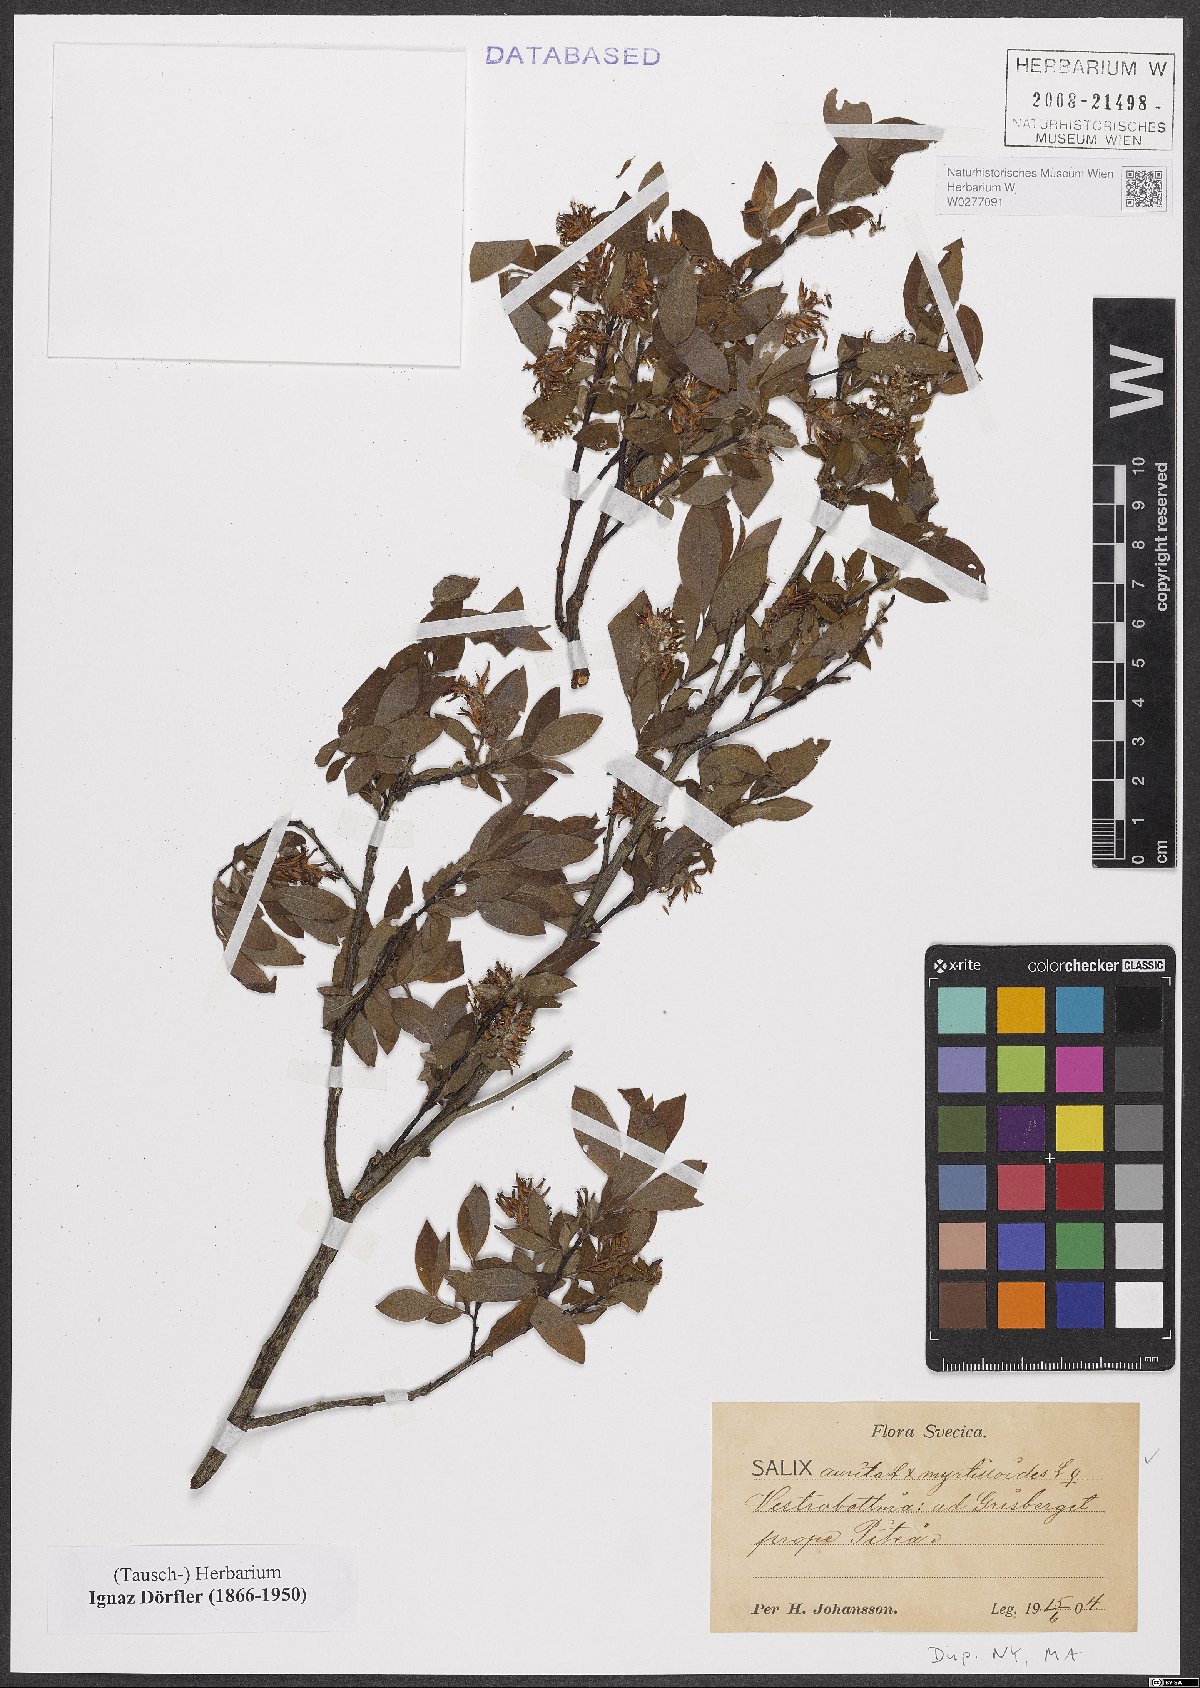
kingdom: Plantae
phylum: Tracheophyta
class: Magnoliopsida
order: Malpighiales
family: Salicaceae
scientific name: Salicaceae
